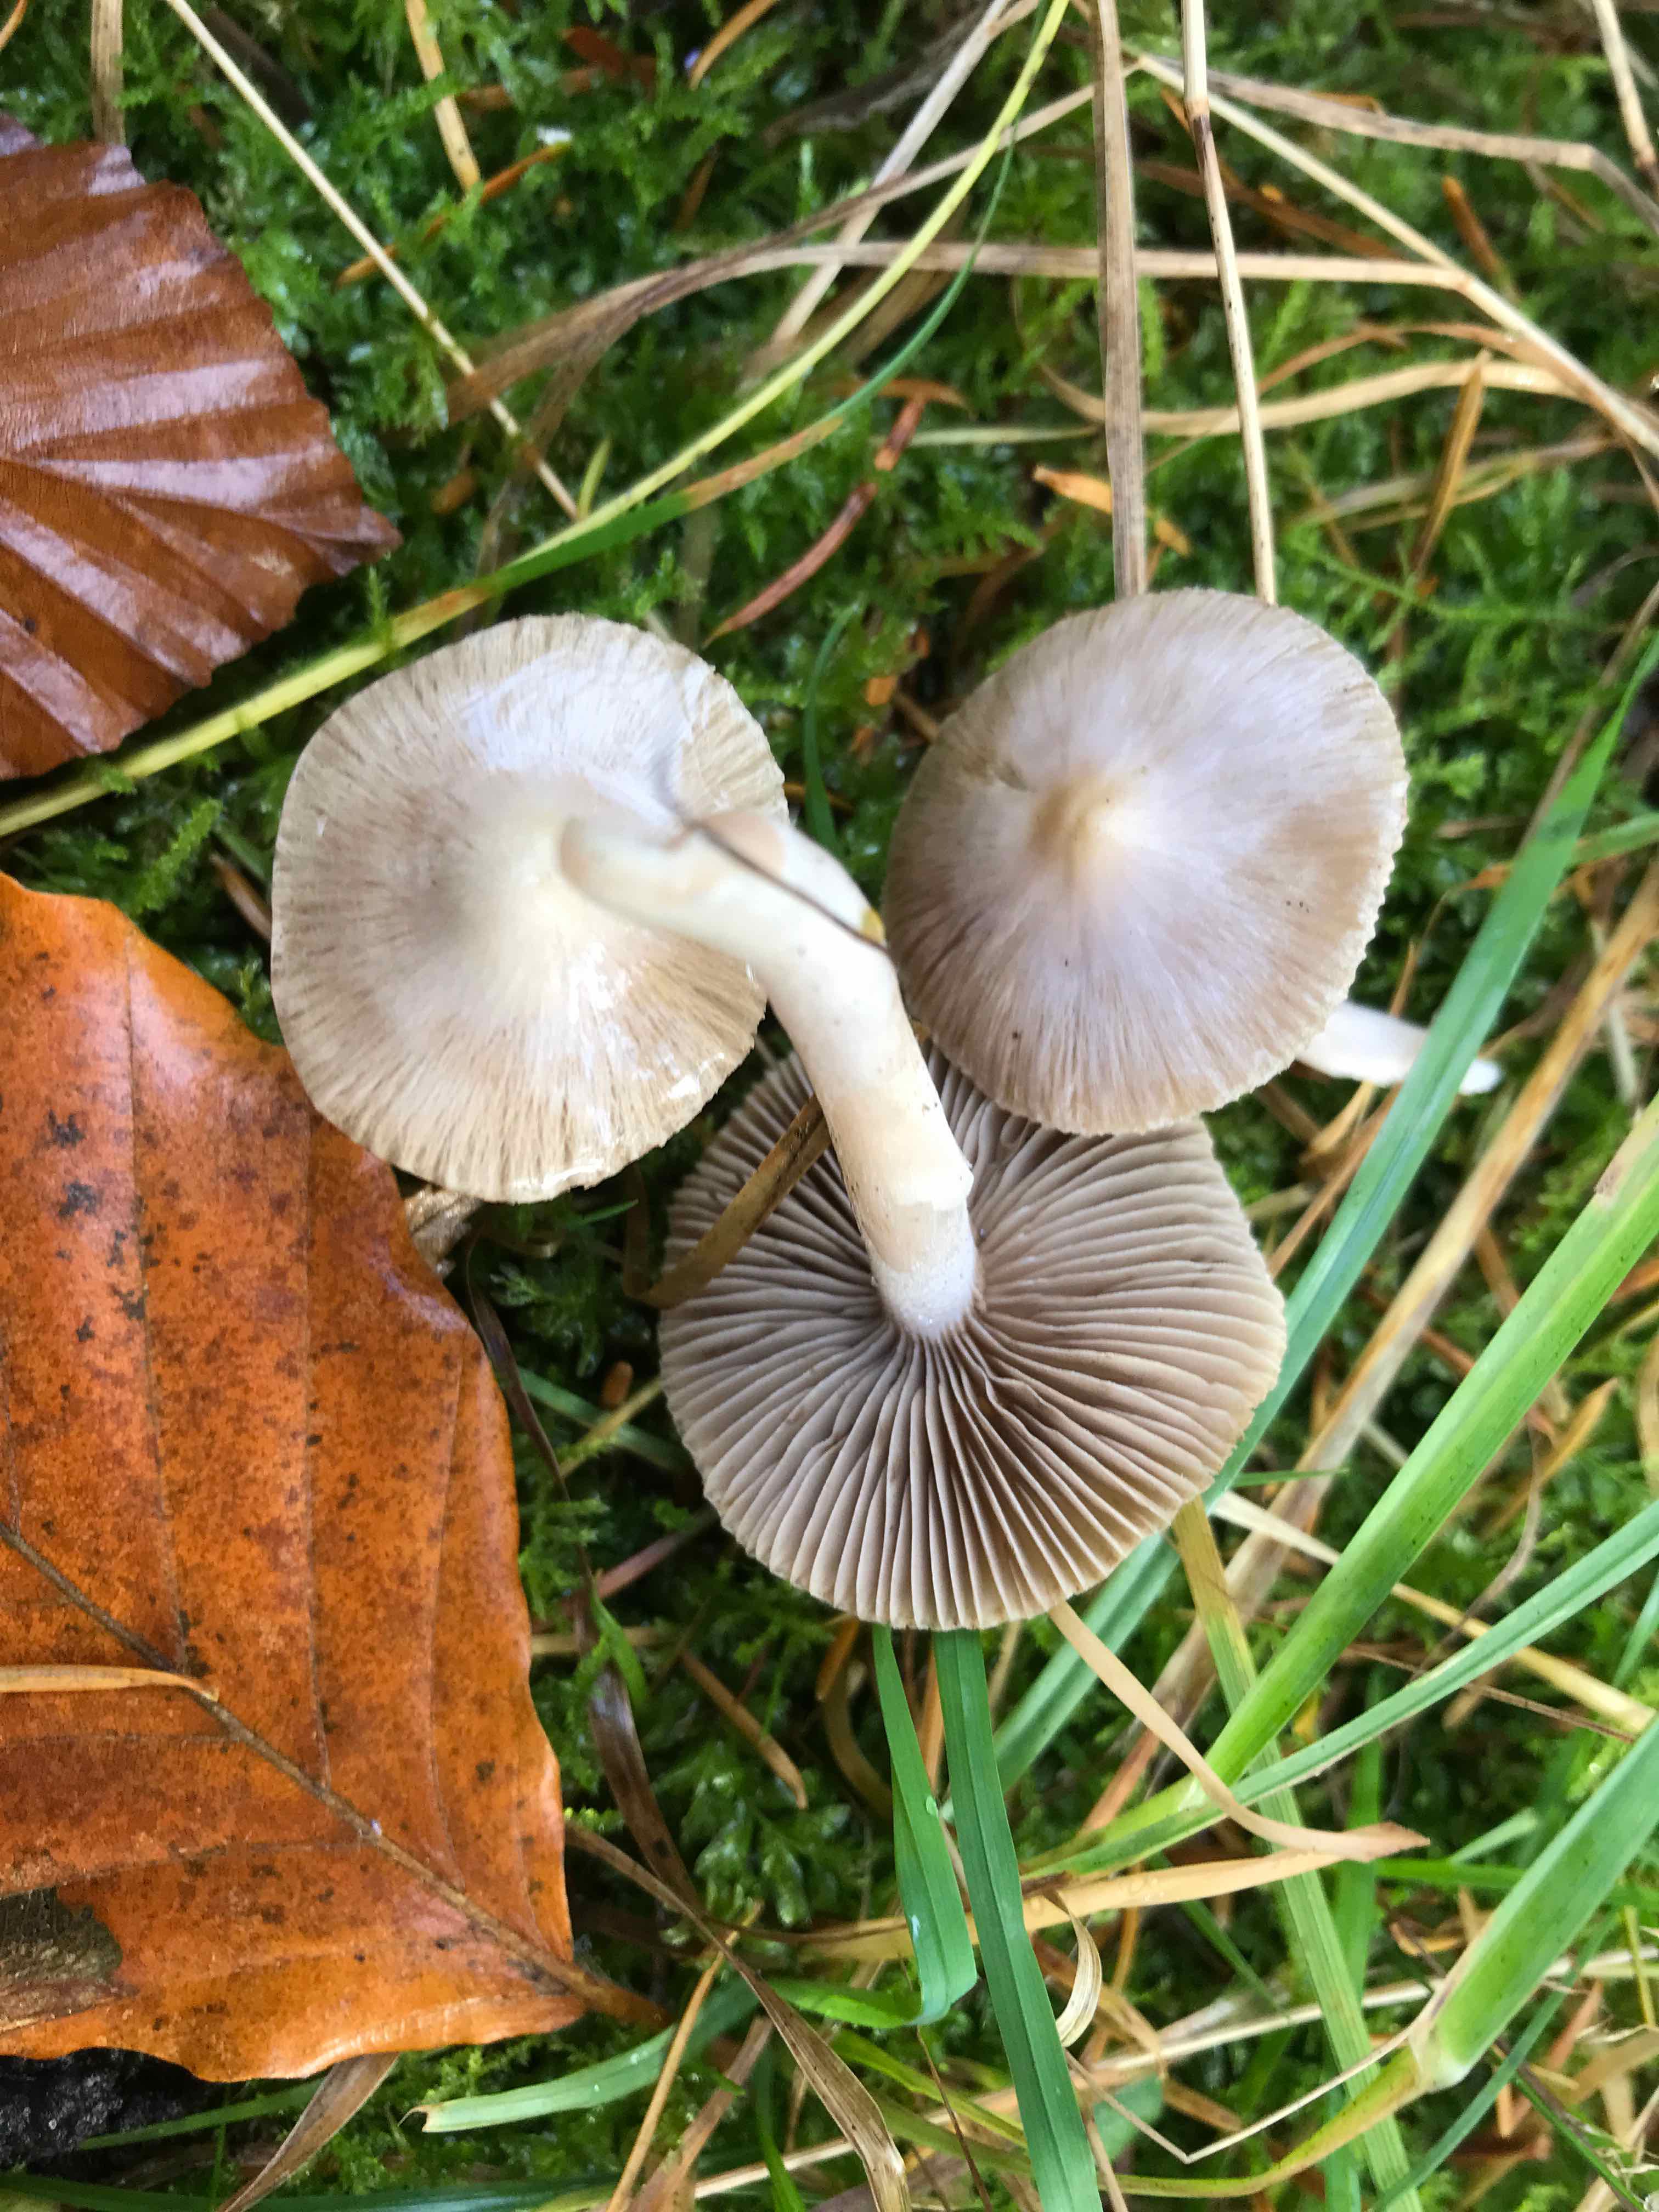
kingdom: Fungi
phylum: Basidiomycota
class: Agaricomycetes
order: Agaricales
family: Inocybaceae
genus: Inocybe
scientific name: Inocybe
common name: almindelig trævlhat
